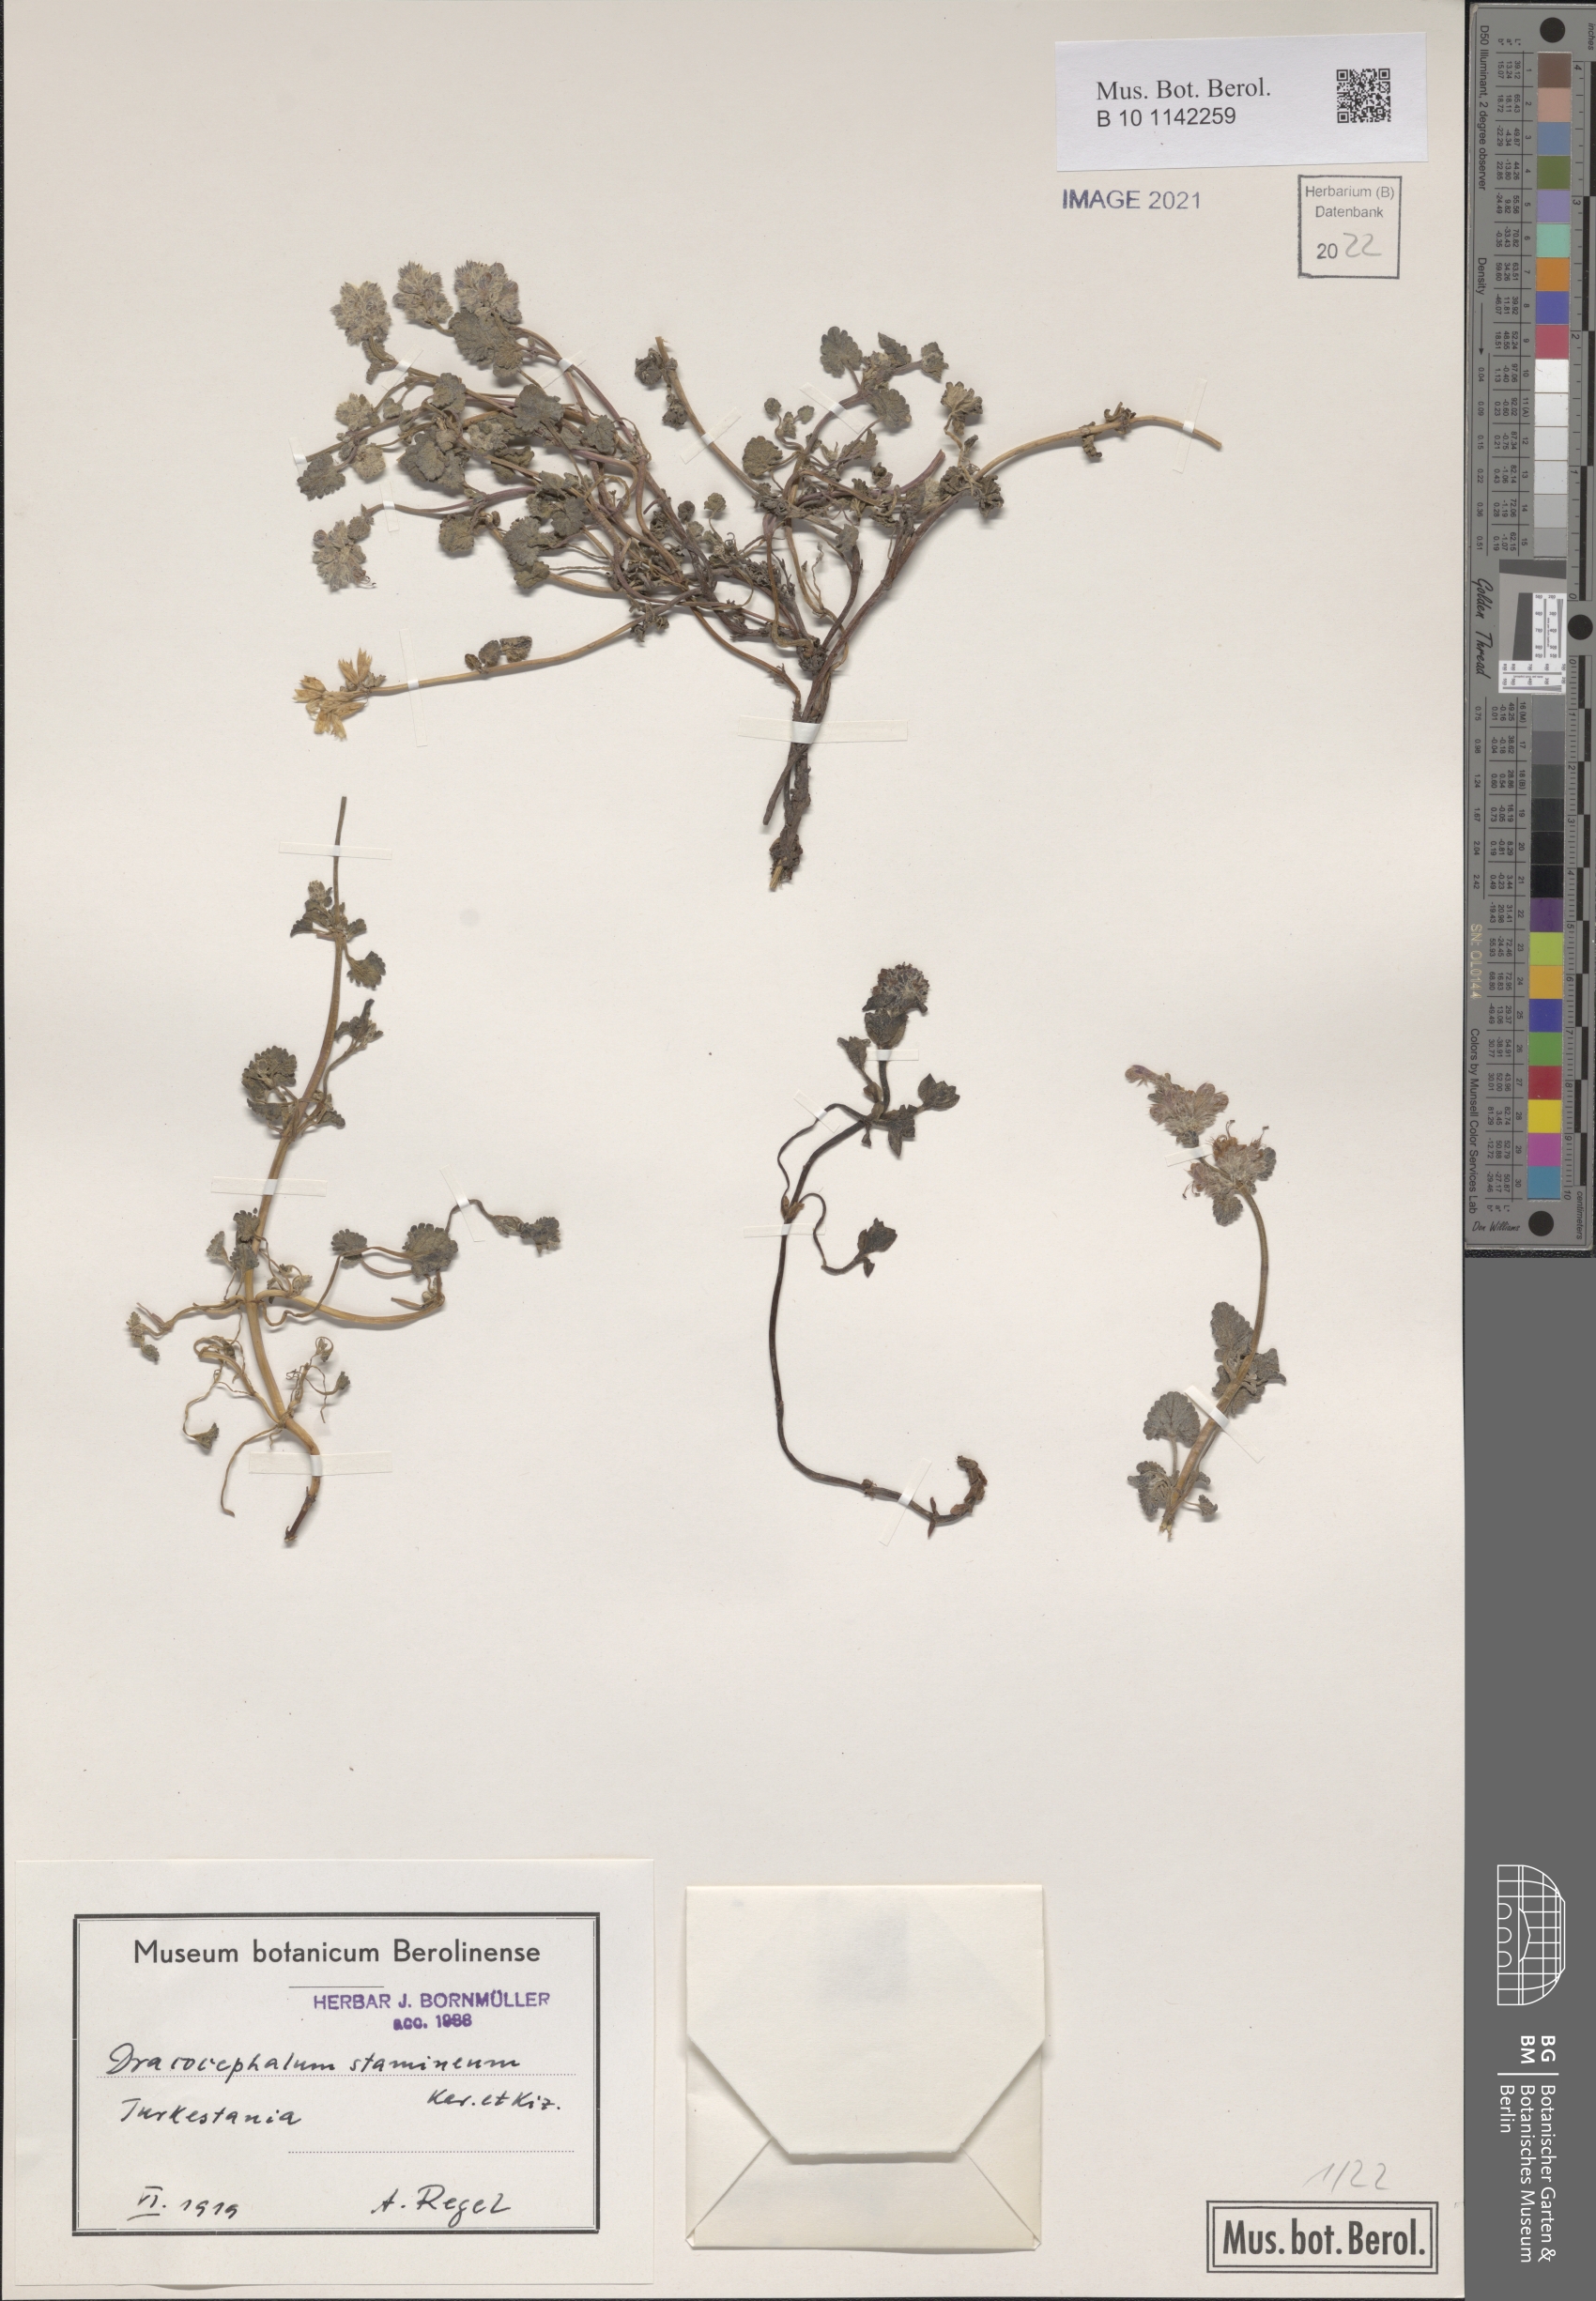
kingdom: Plantae
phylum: Tracheophyta
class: Magnoliopsida
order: Lamiales
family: Lamiaceae
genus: Dracocephalum
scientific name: Dracocephalum stamineum
